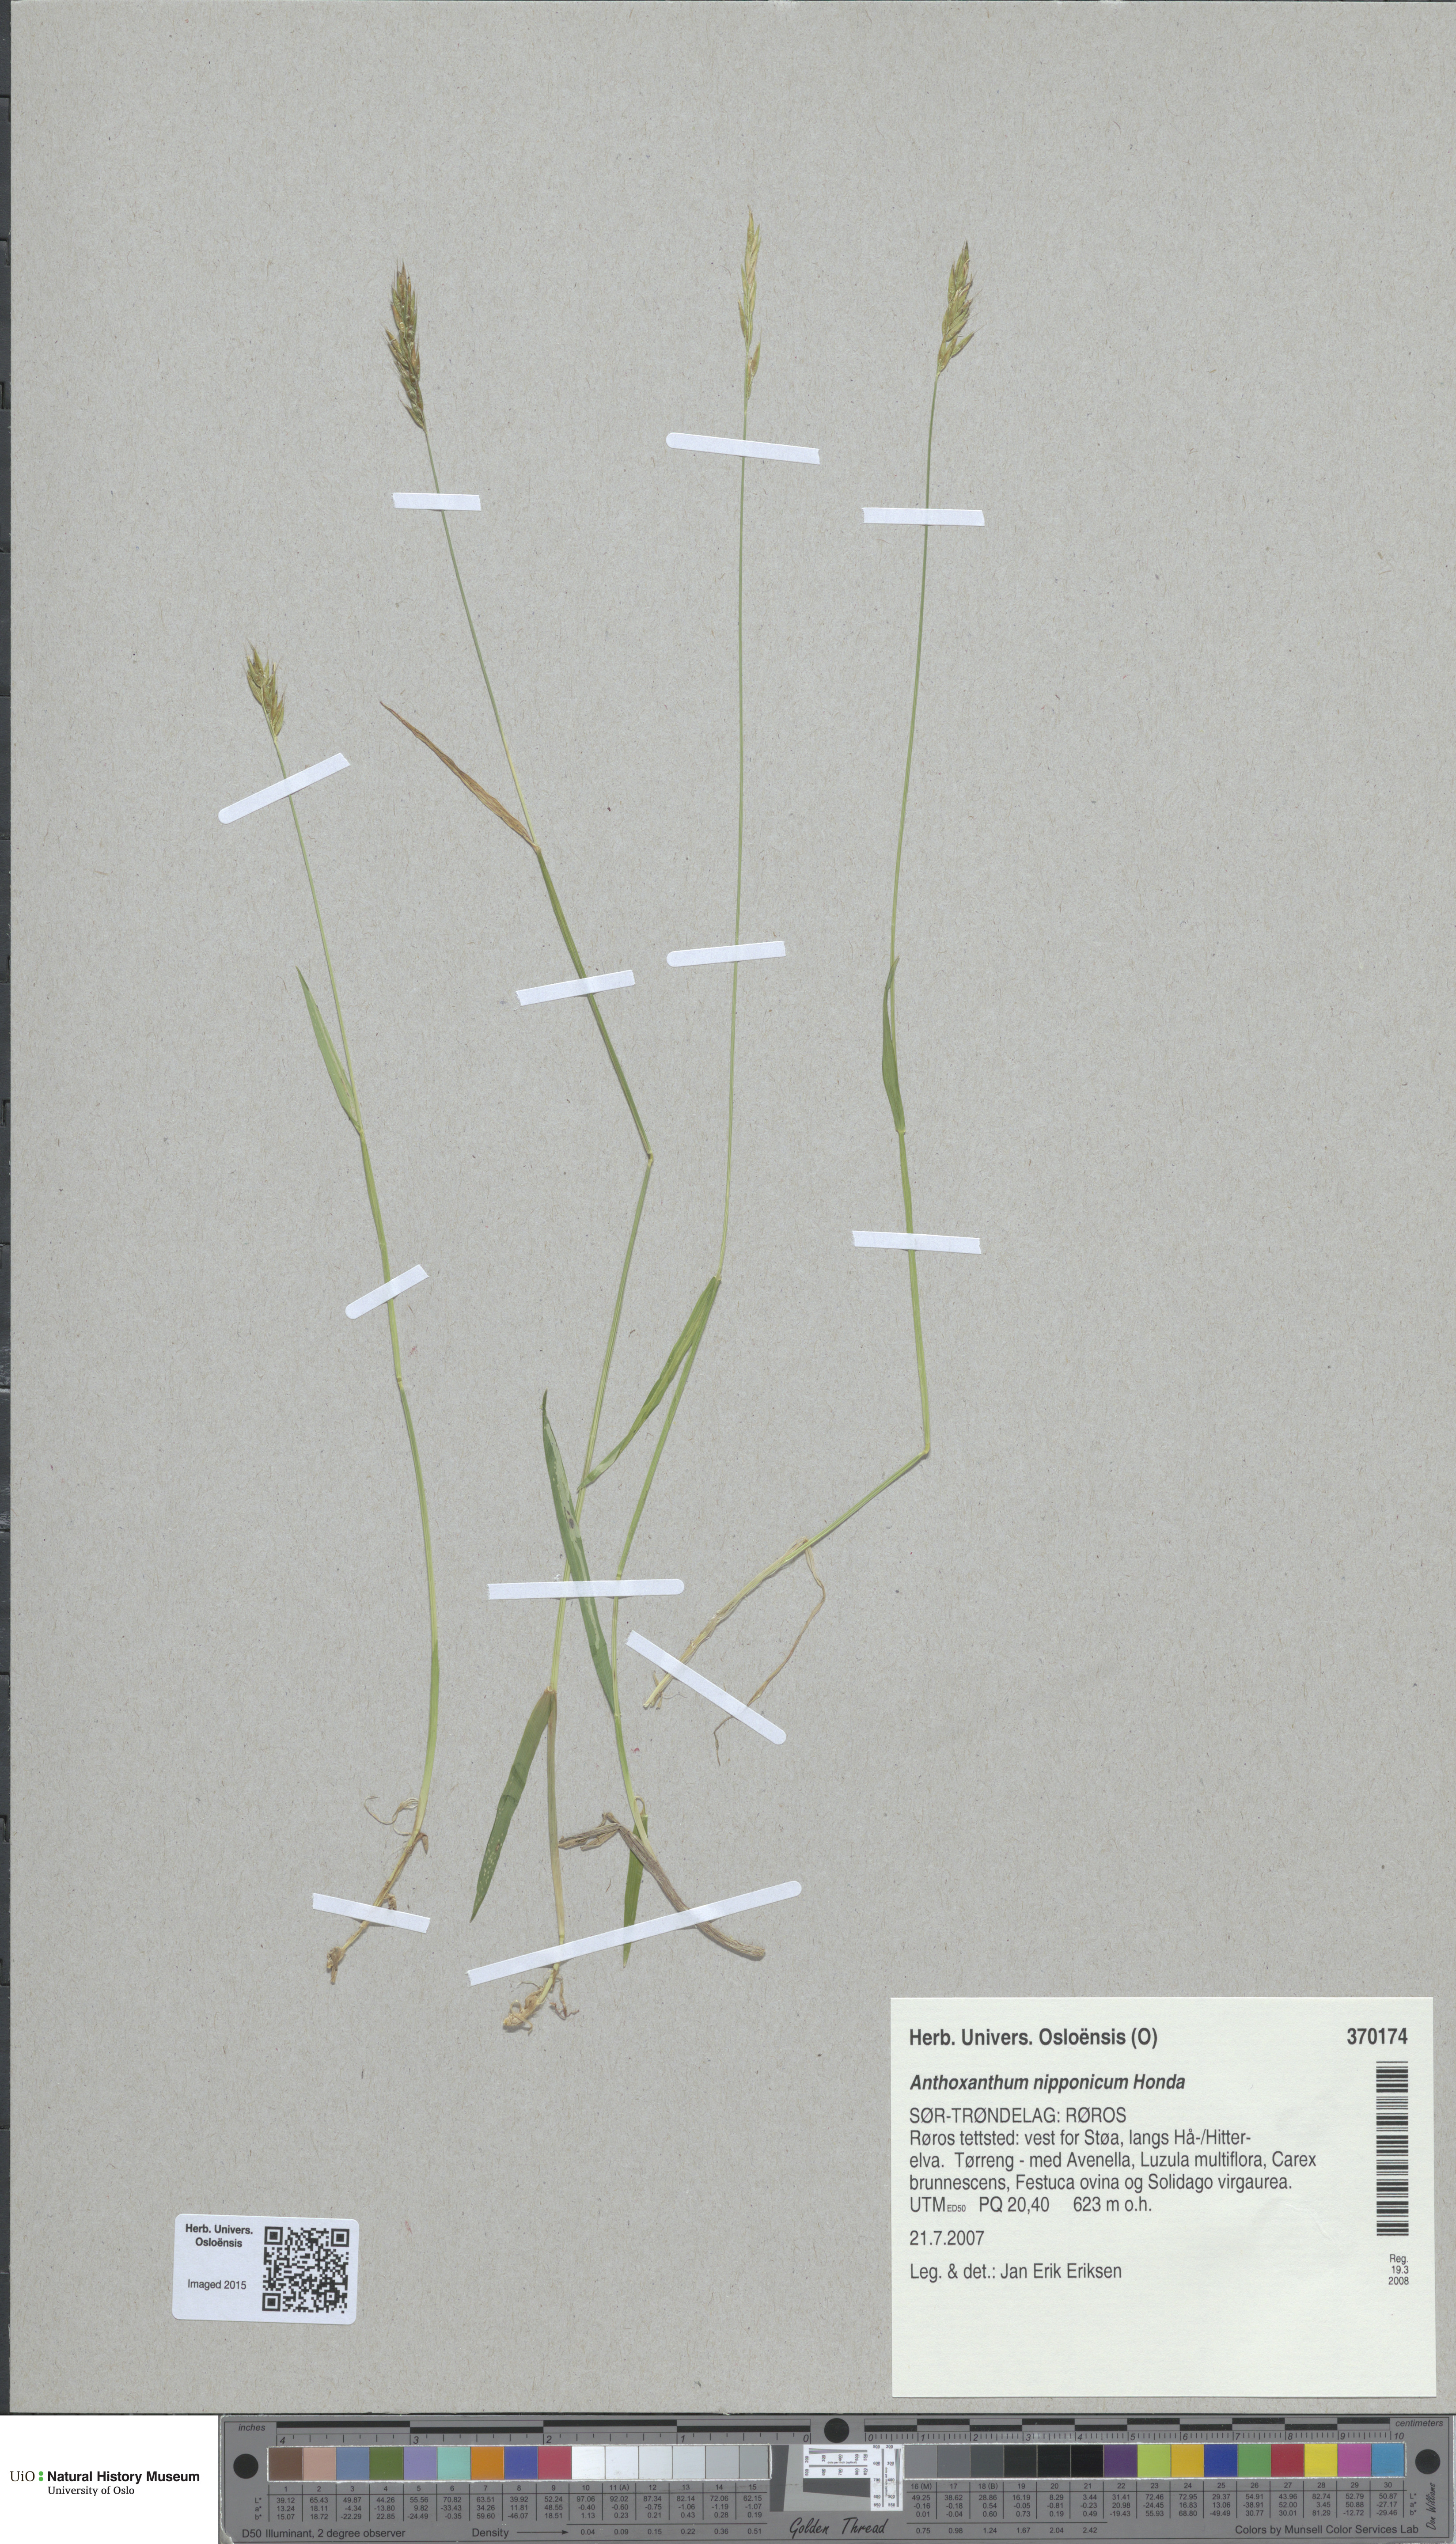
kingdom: Plantae
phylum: Tracheophyta
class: Liliopsida
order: Poales
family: Poaceae
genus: Anthoxanthum
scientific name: Anthoxanthum nipponicum
